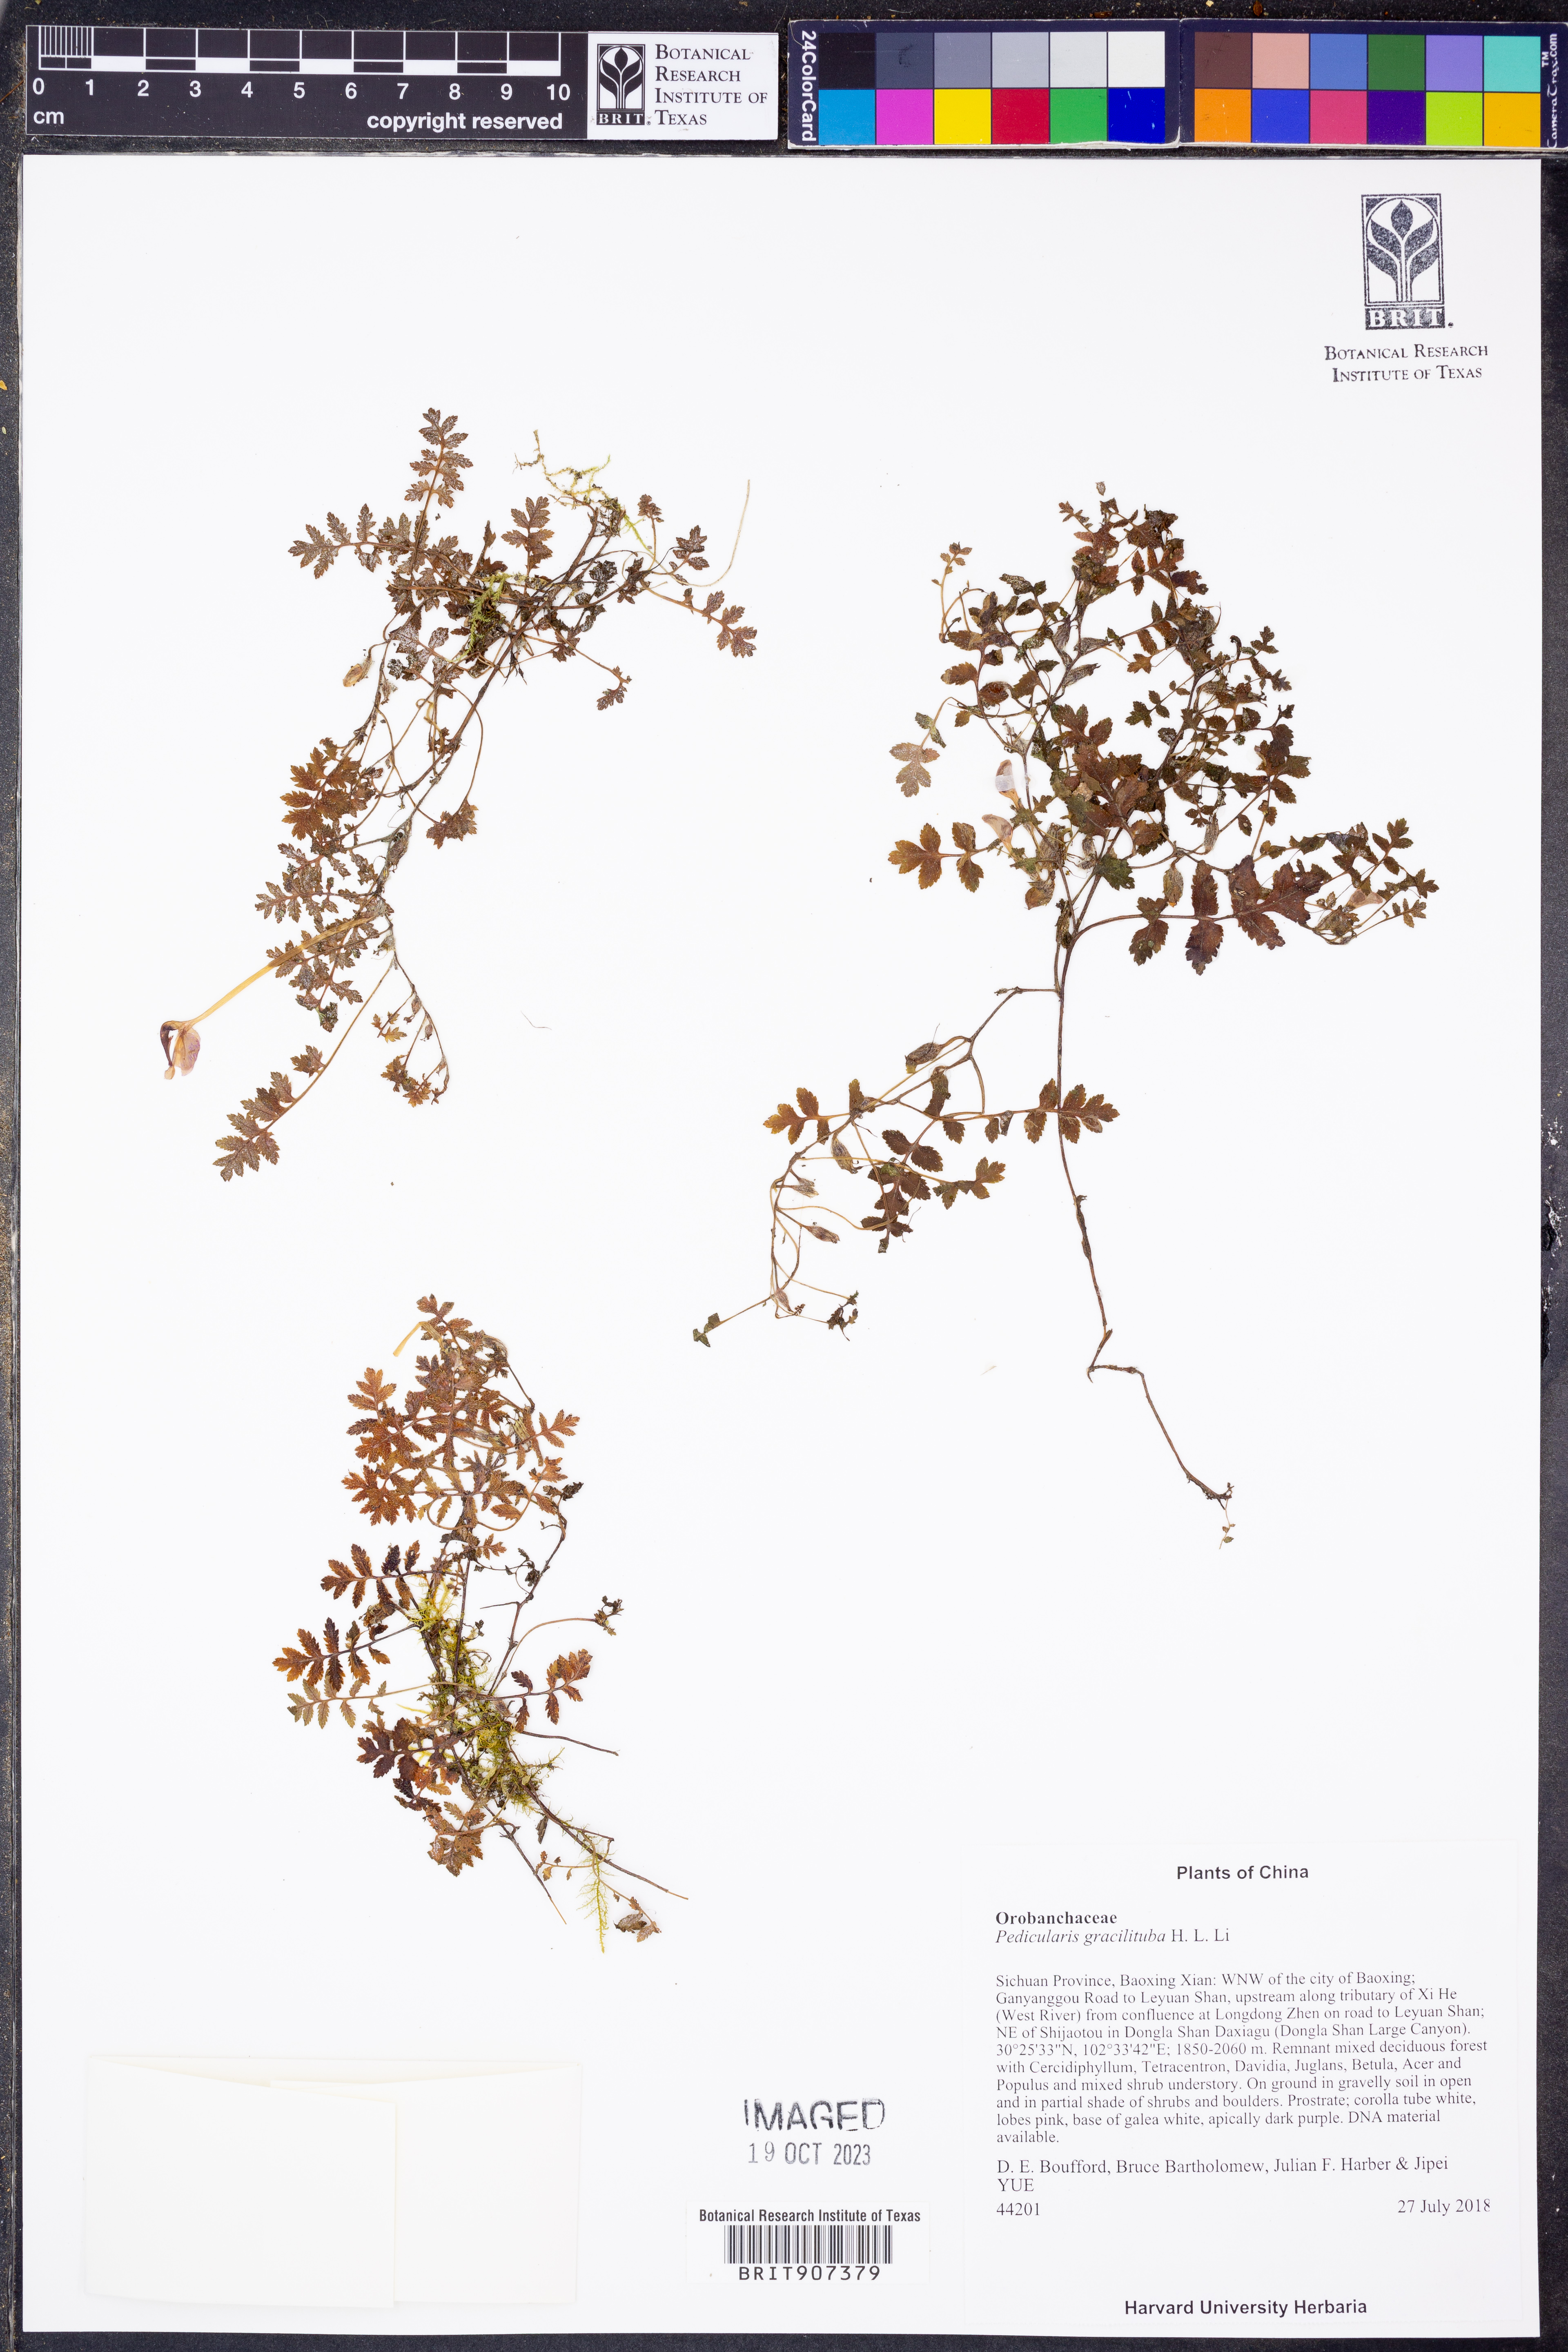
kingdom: Plantae
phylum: Tracheophyta
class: Magnoliopsida
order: Lamiales
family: Orobanchaceae
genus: Pedicularis
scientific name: Pedicularis gracilituba
